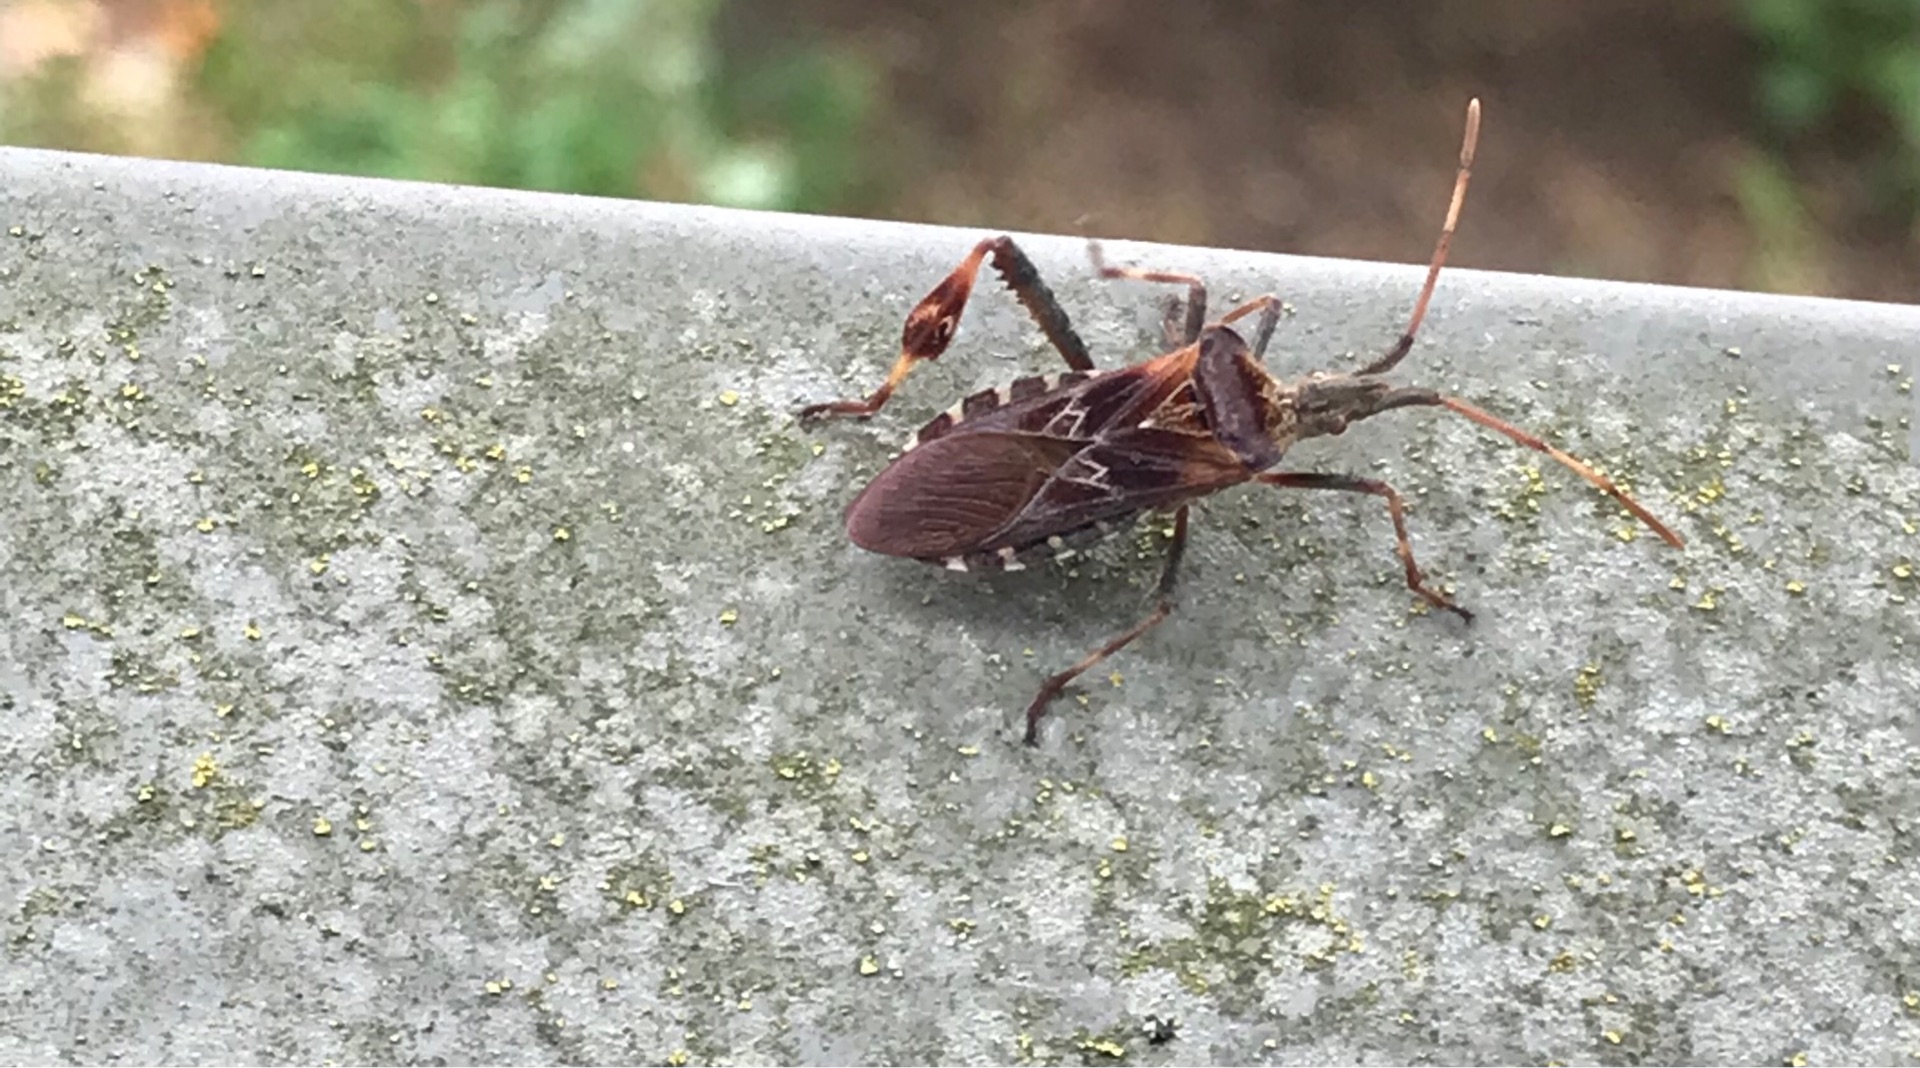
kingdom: Animalia
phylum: Arthropoda
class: Insecta
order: Hemiptera
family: Coreidae
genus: Leptoglossus
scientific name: Leptoglossus occidentalis
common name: Amerikansk fyrretæge
